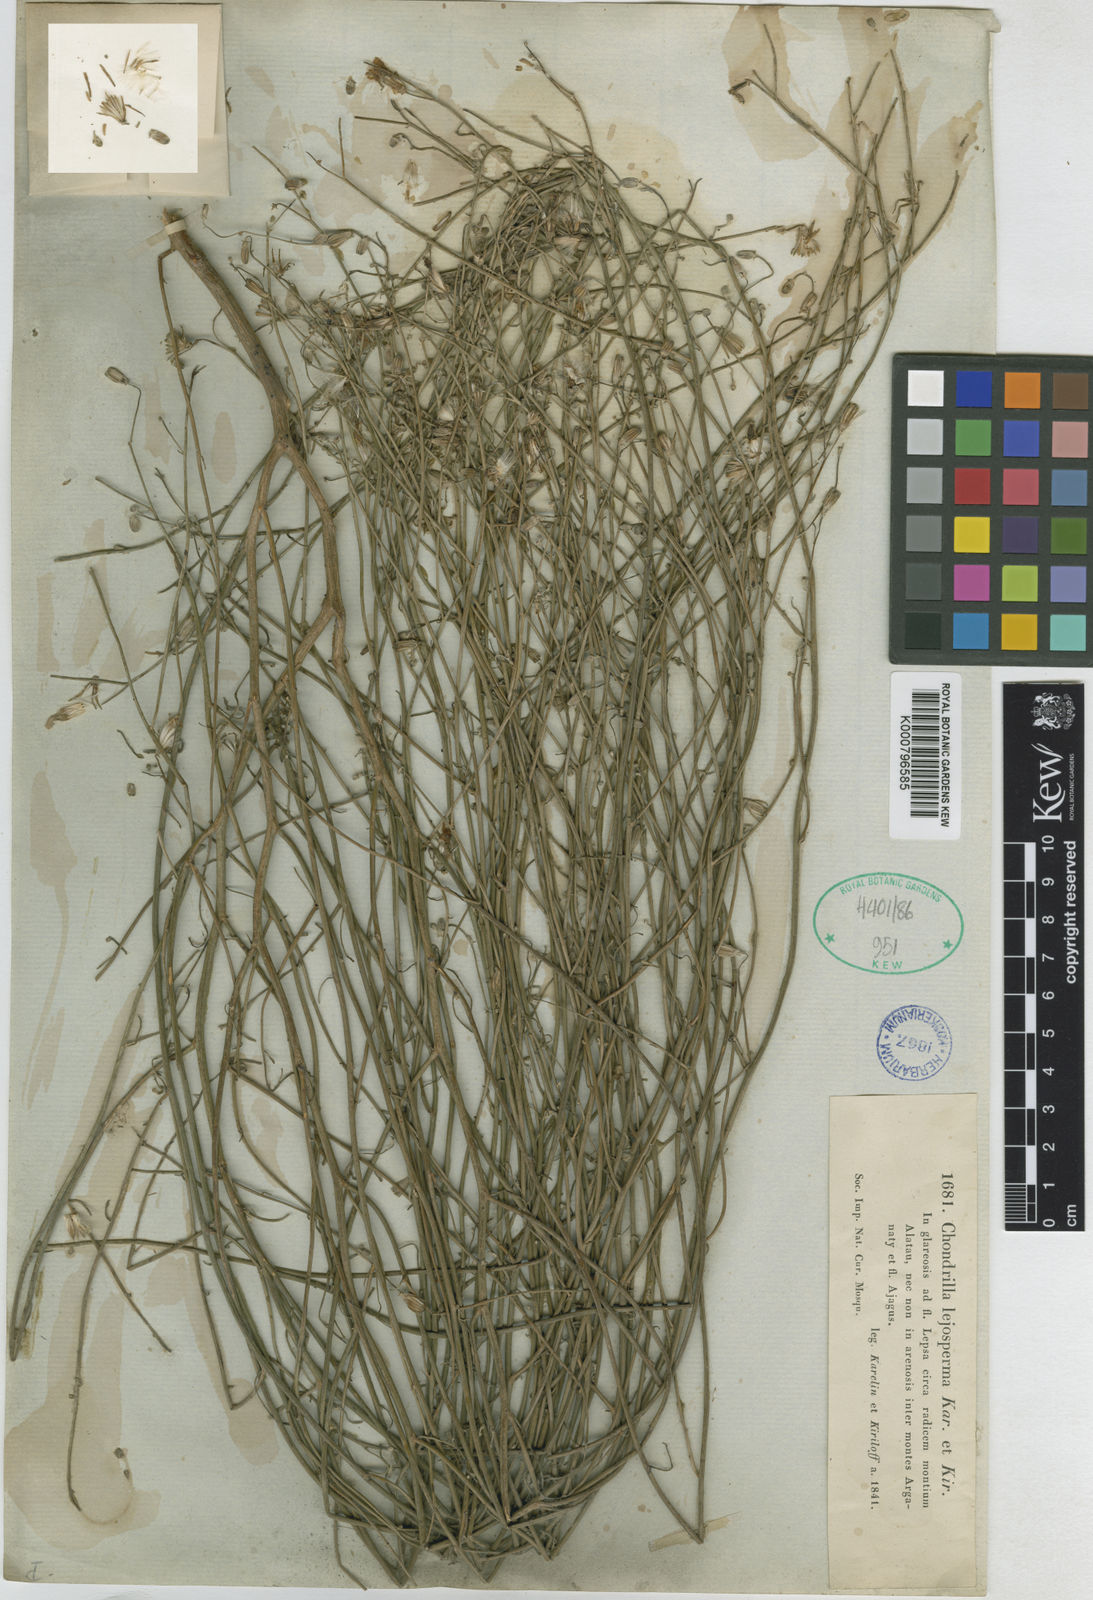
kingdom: Plantae
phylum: Tracheophyta
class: Magnoliopsida
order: Asterales
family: Asteraceae
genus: Chondrilla
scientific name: Chondrilla lejospemna
